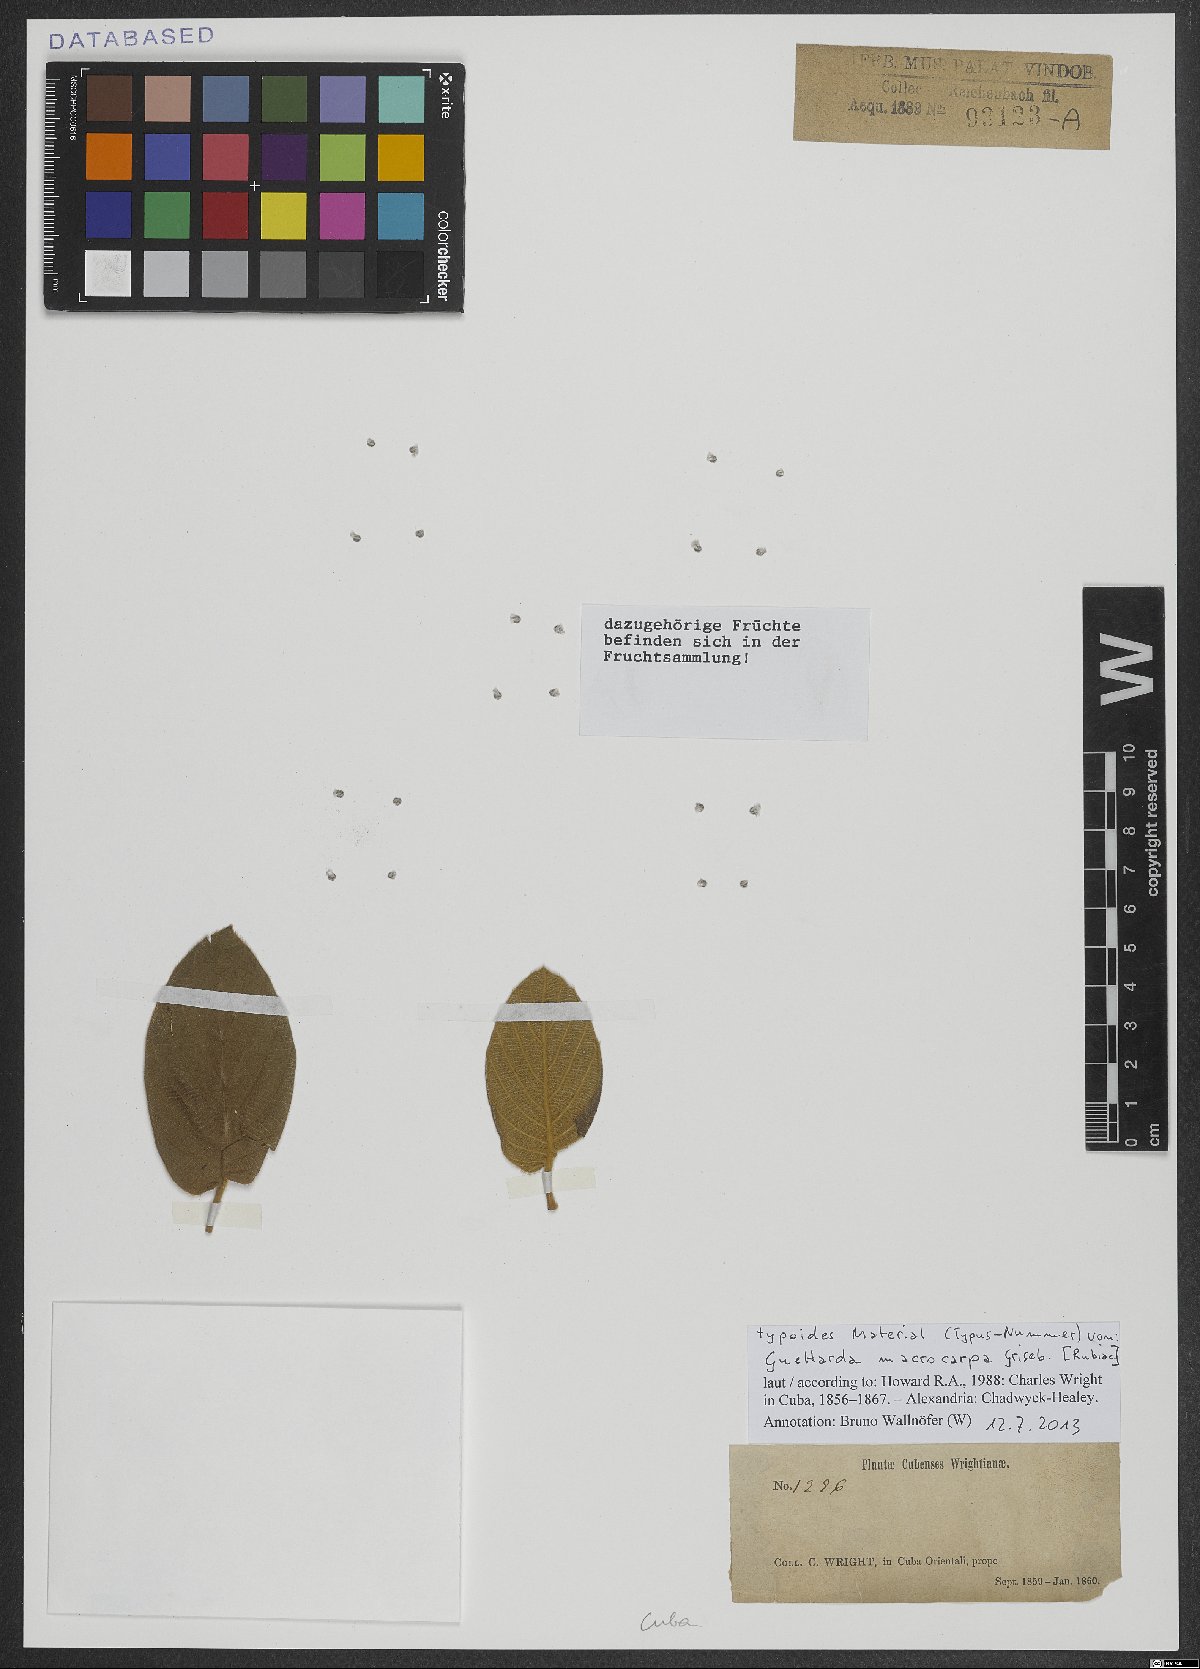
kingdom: Plantae
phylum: Tracheophyta
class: Magnoliopsida
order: Gentianales
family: Rubiaceae
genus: Guettarda
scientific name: Guettarda macrocarpa
